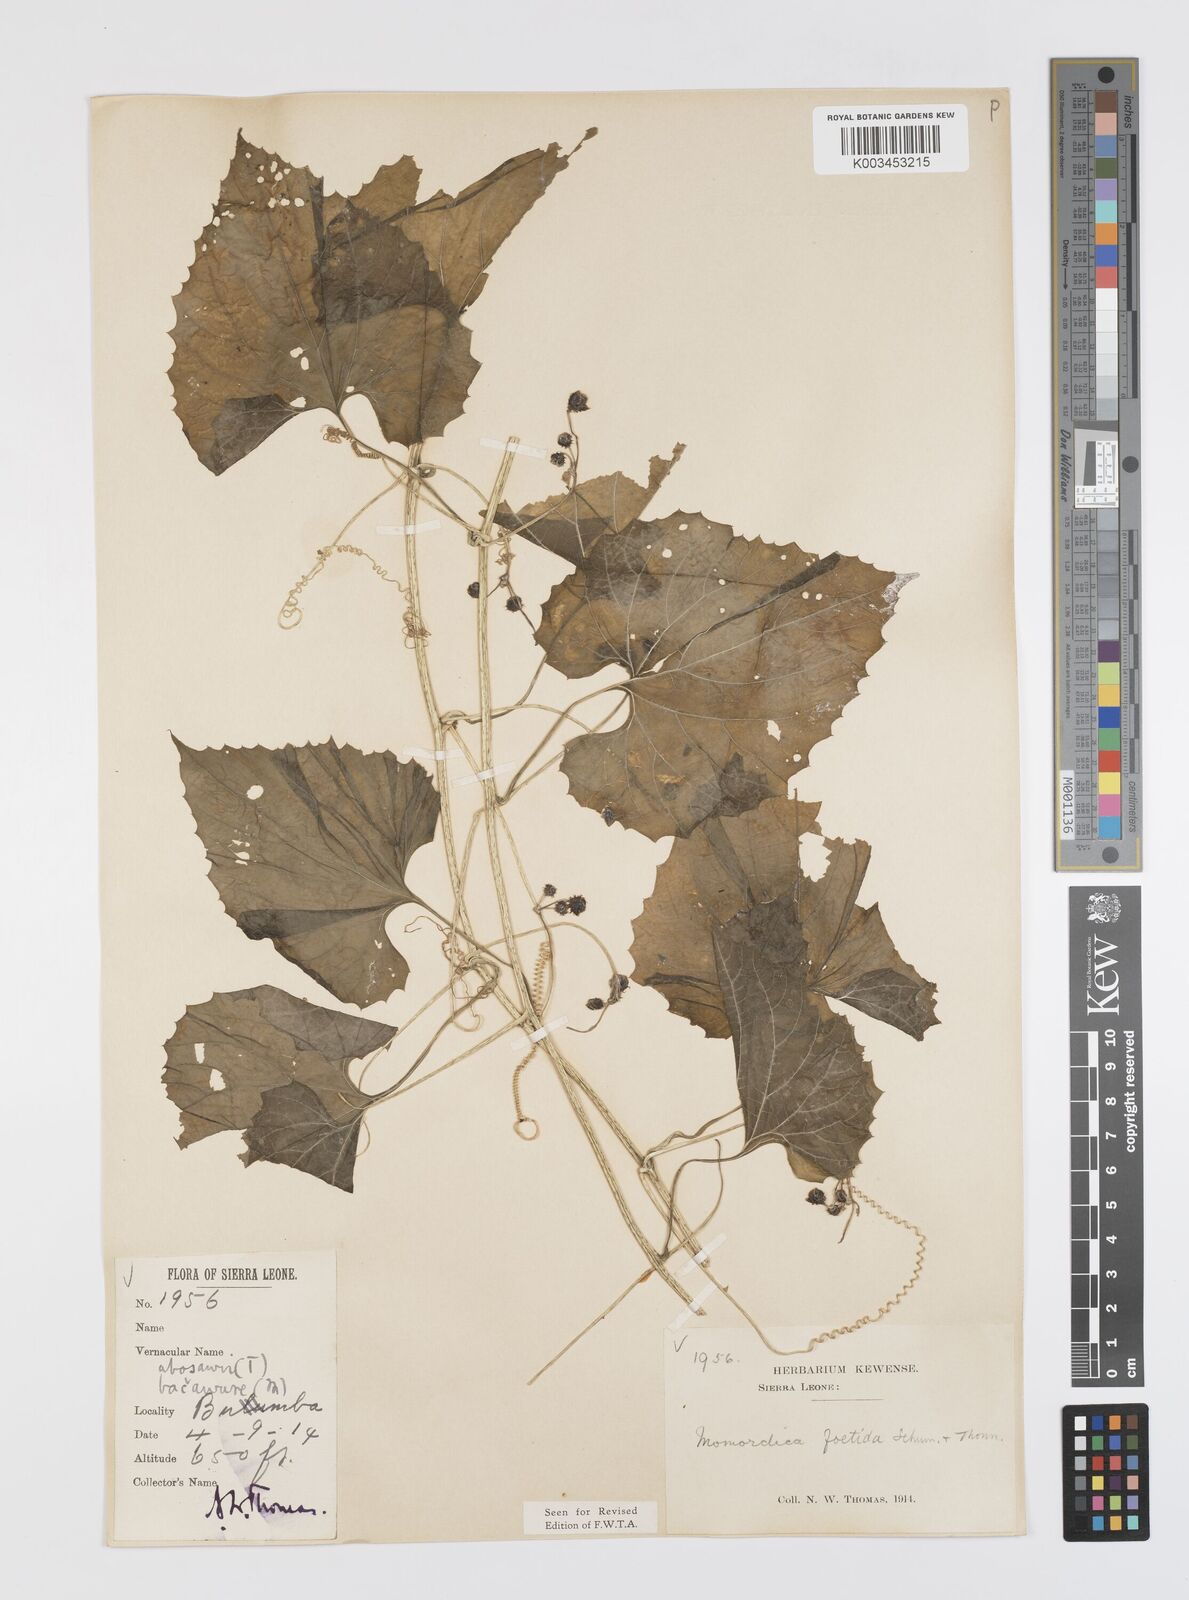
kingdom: Plantae
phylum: Tracheophyta
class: Magnoliopsida
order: Cucurbitales
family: Cucurbitaceae
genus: Momordica
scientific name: Momordica foetida
